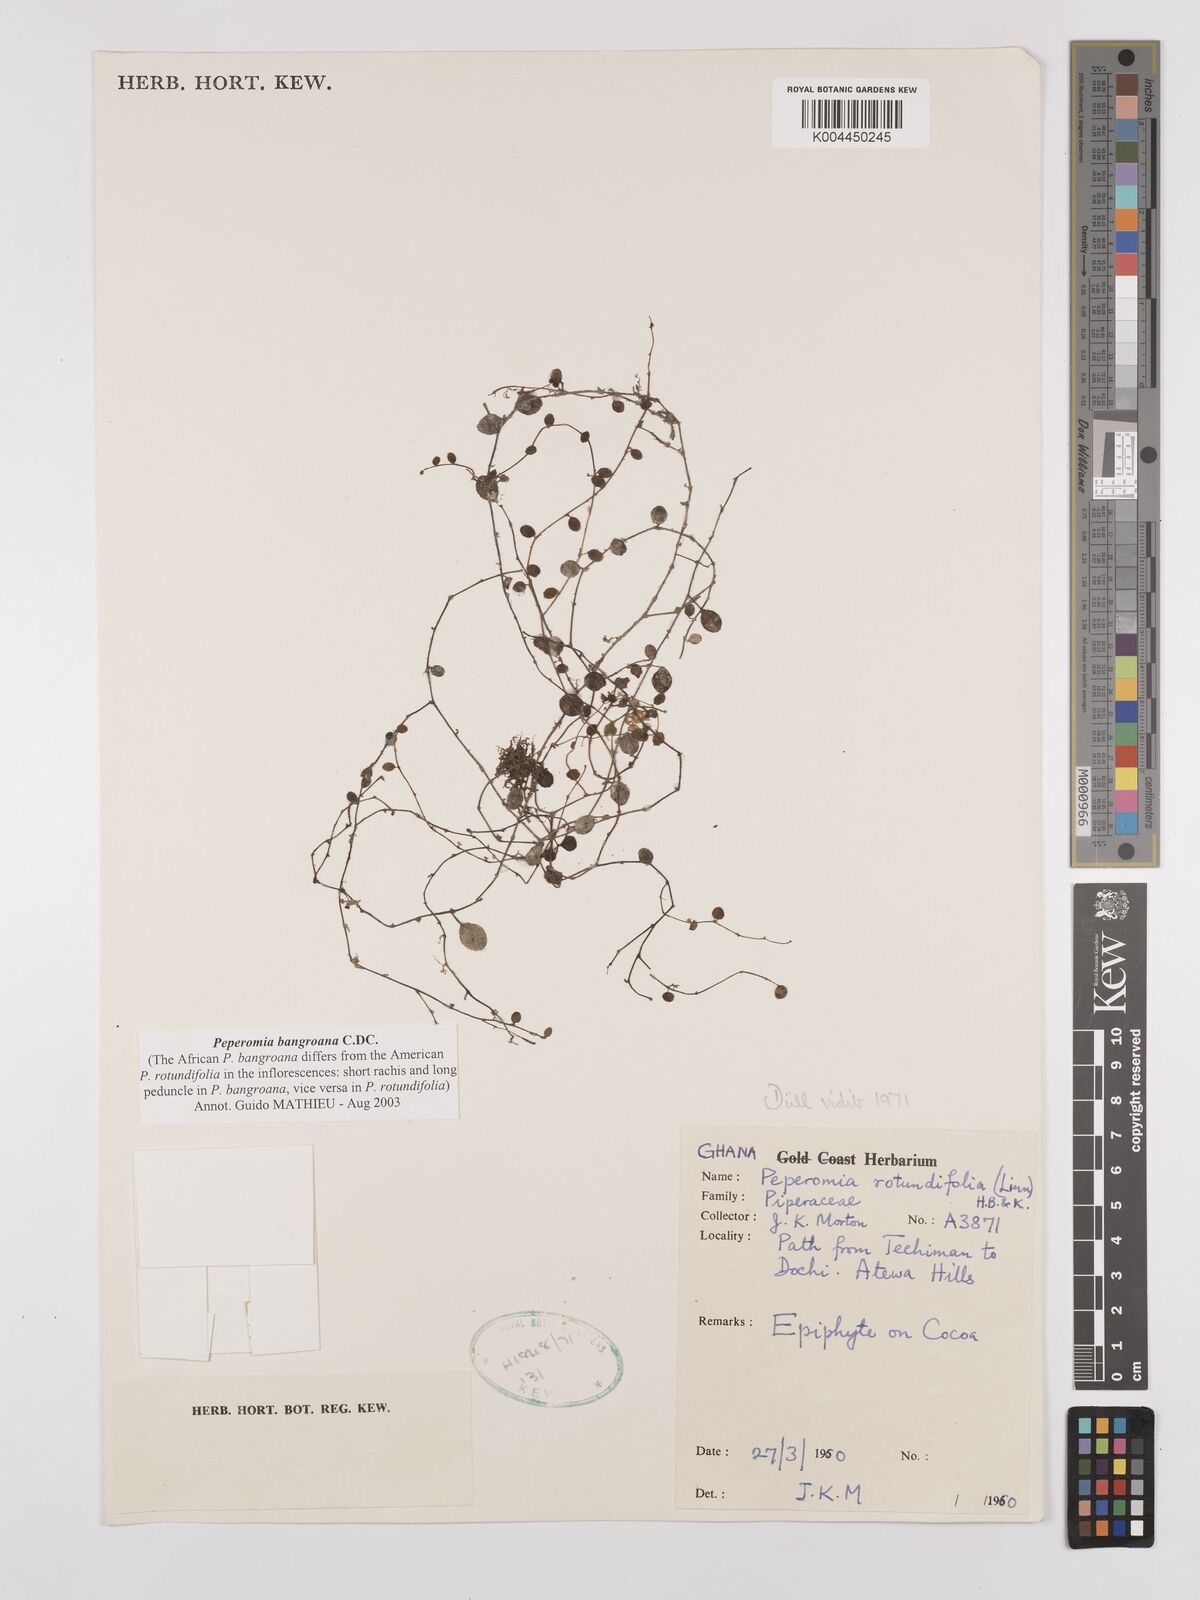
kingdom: Plantae
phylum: Tracheophyta
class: Magnoliopsida
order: Piperales
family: Piperaceae
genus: Peperomia
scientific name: Peperomia bangroana
